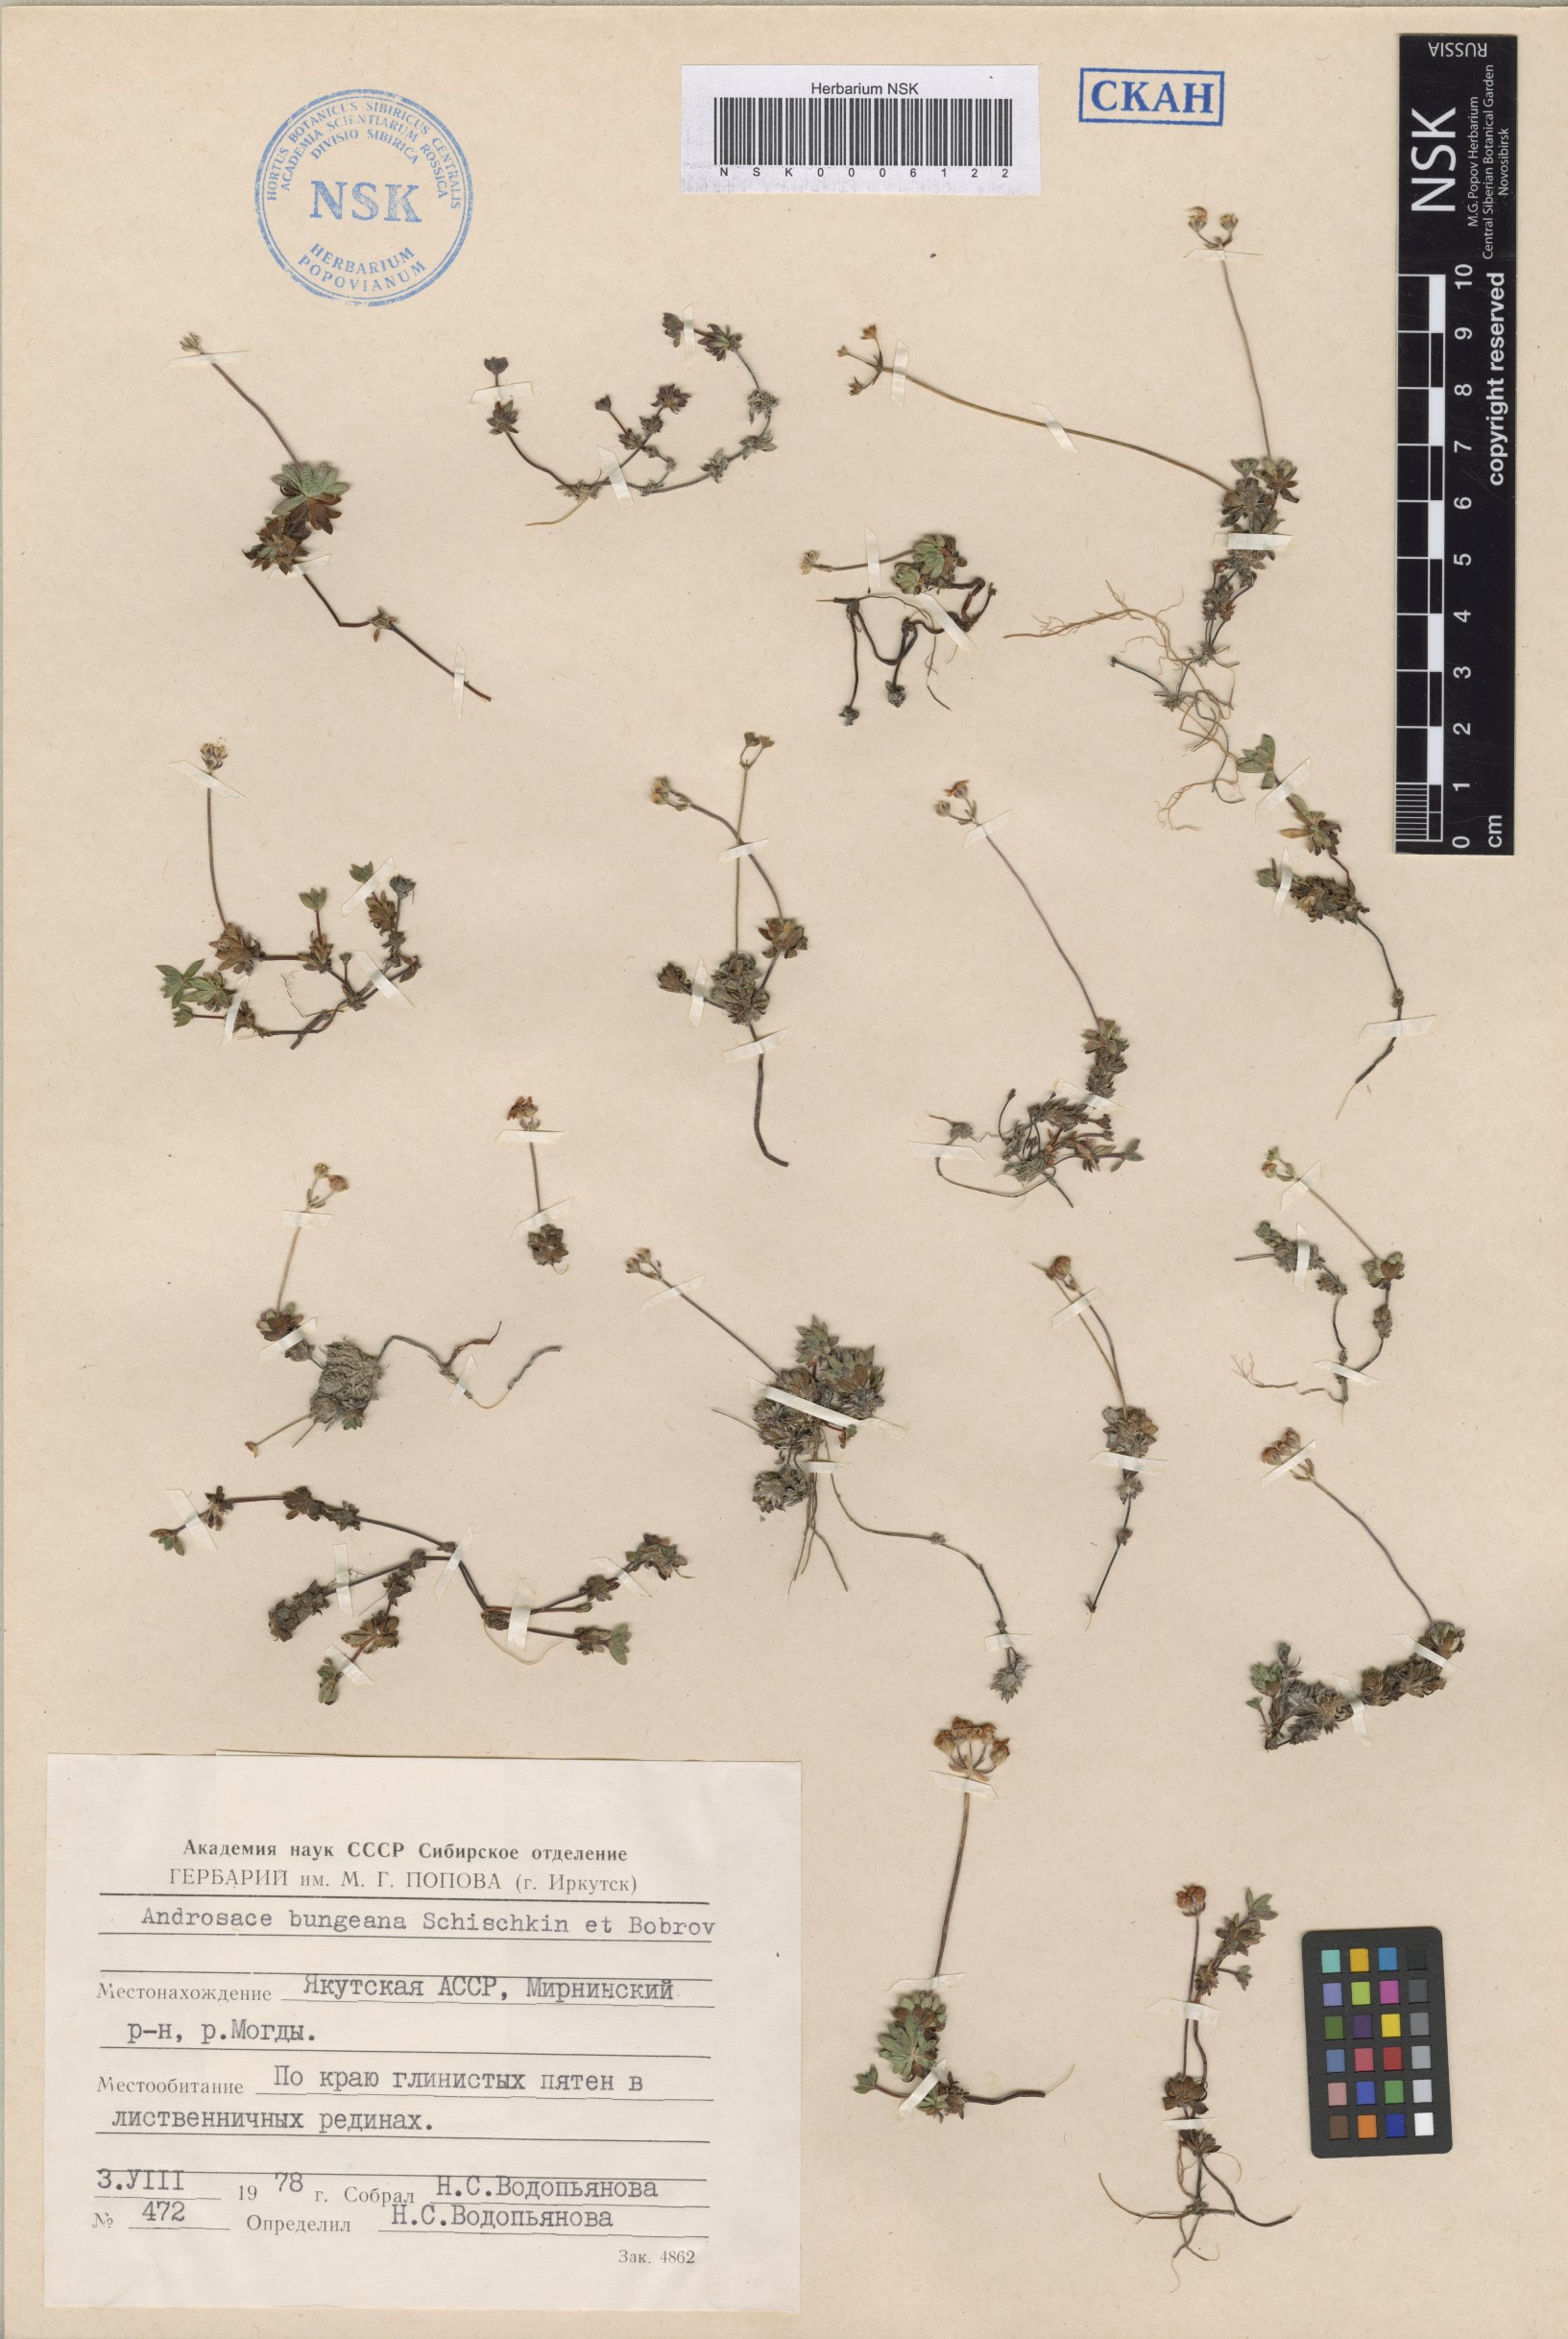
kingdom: Plantae
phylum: Tracheophyta
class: Magnoliopsida
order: Ericales
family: Primulaceae
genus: Androsace
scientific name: Androsace bungeana
